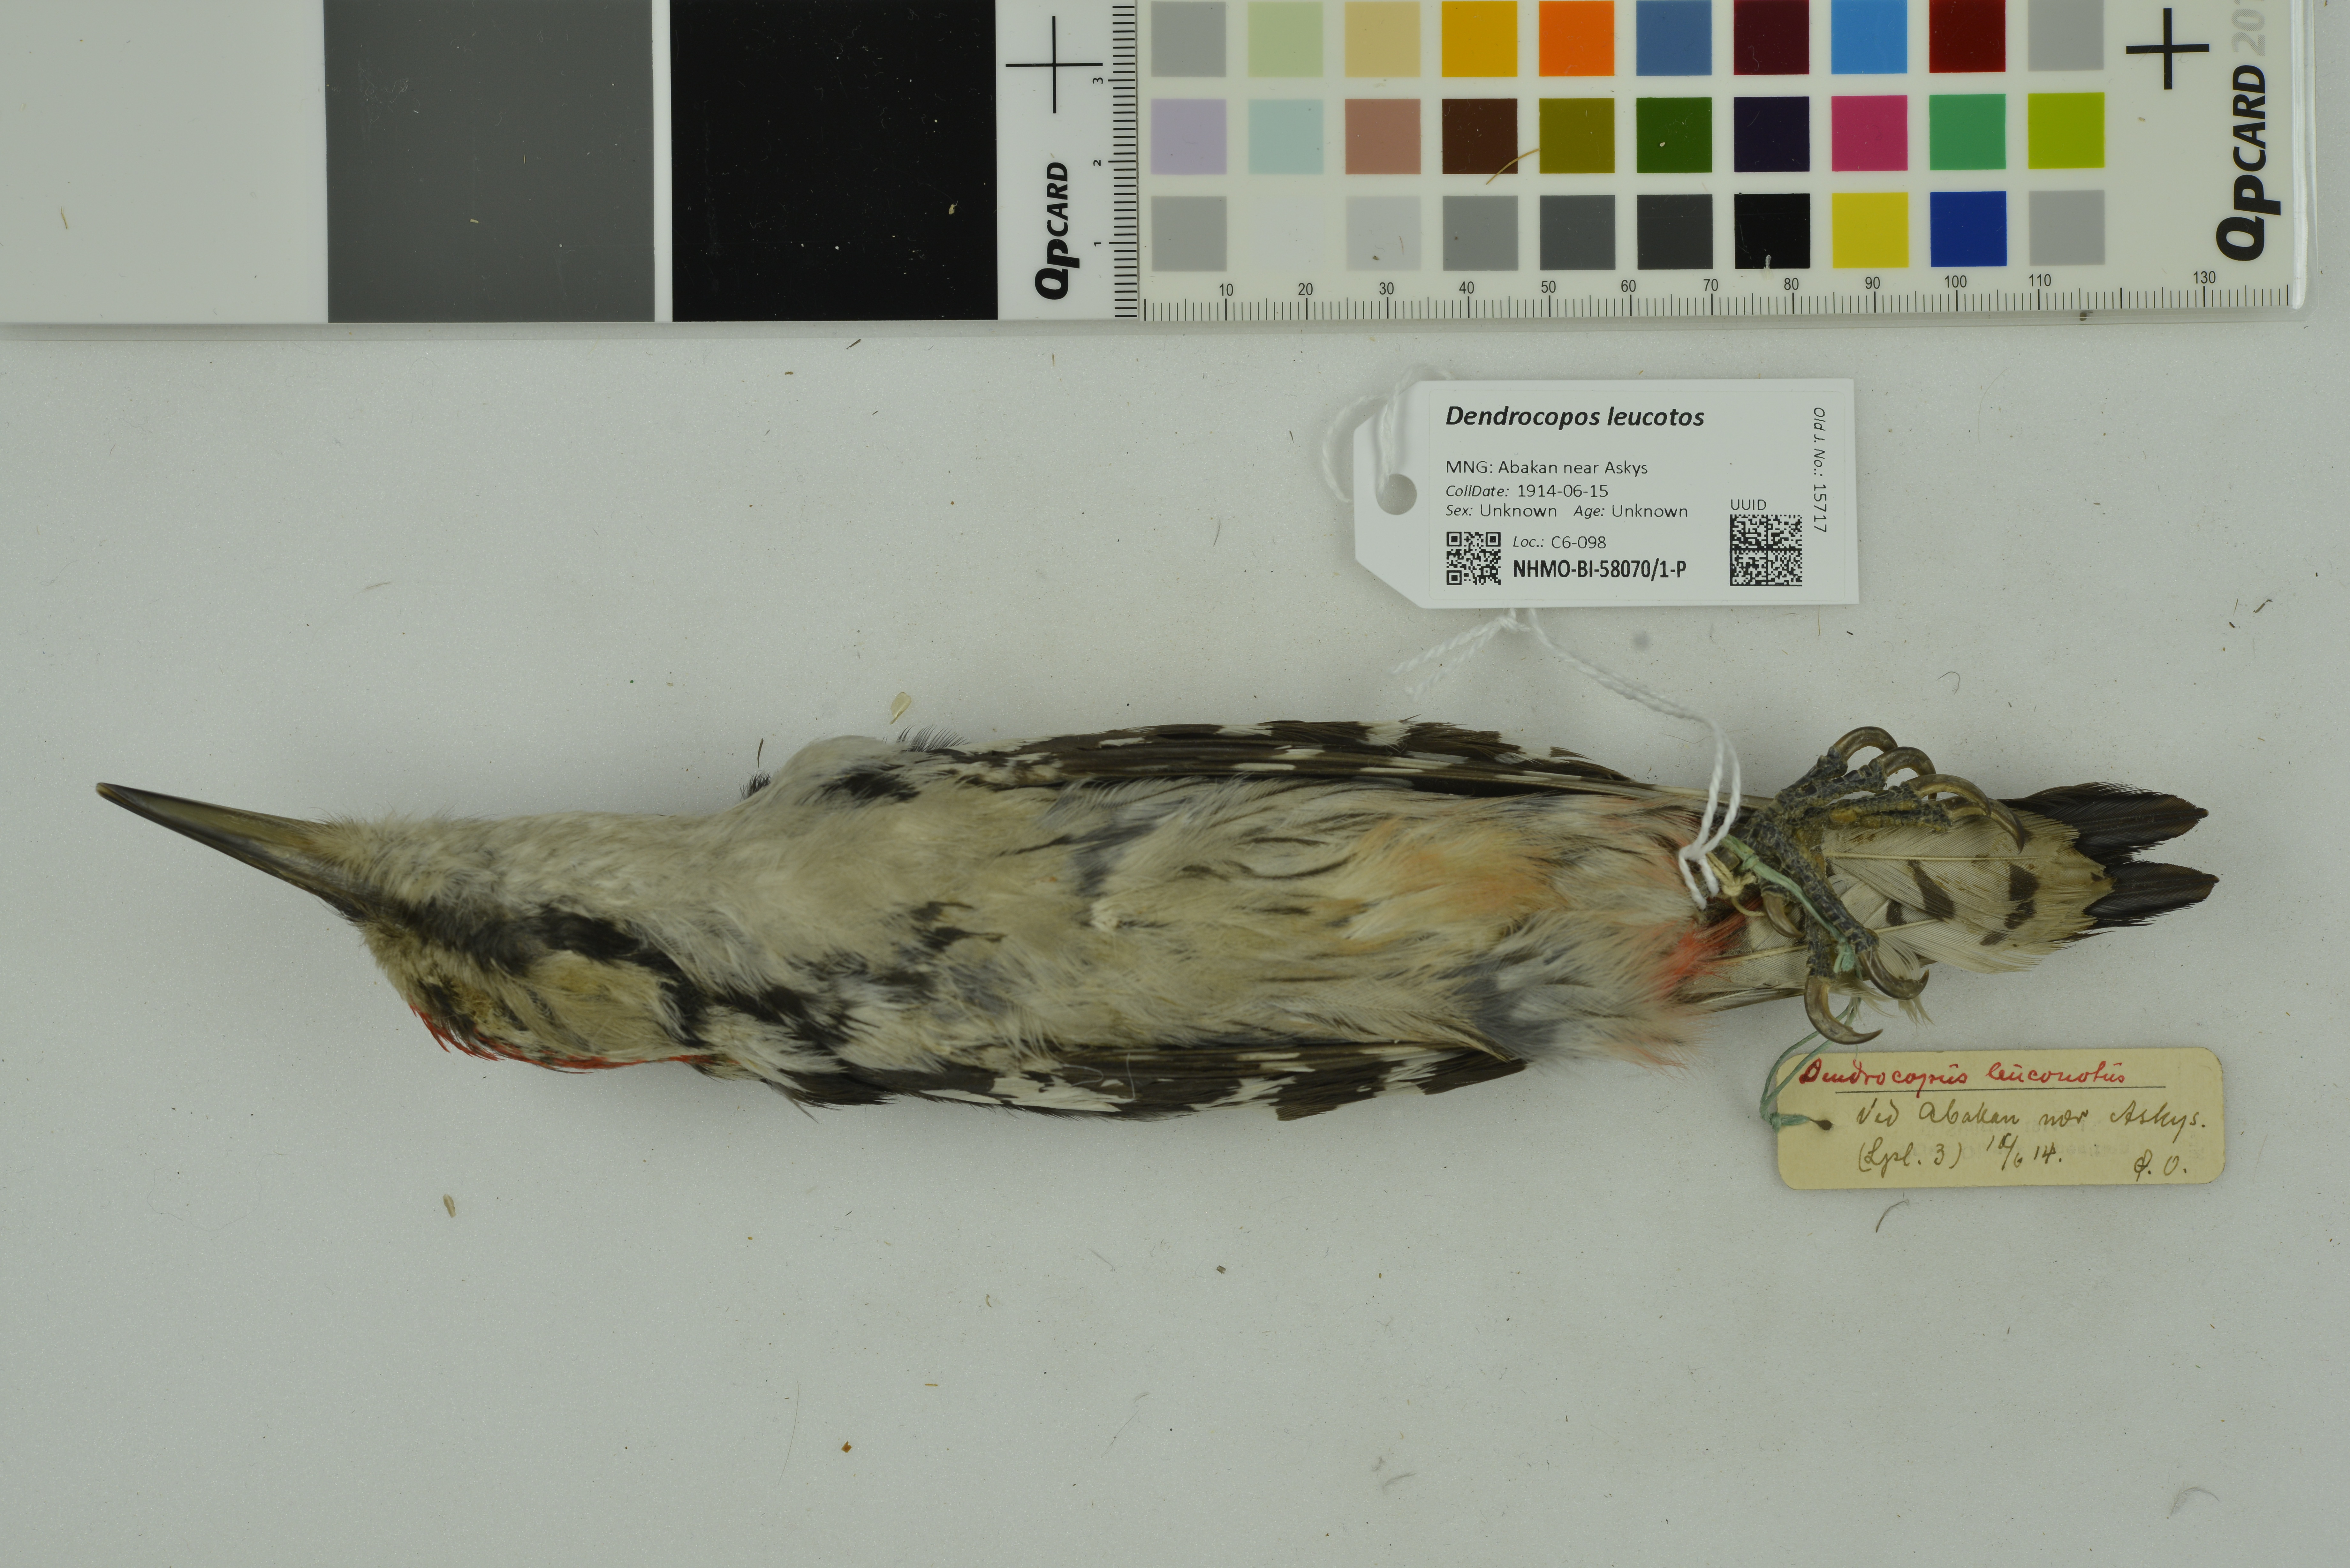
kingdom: Animalia
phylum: Chordata
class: Aves
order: Piciformes
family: Picidae
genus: Dendrocopos
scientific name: Dendrocopos leucotos
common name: White-backed woodpecker
